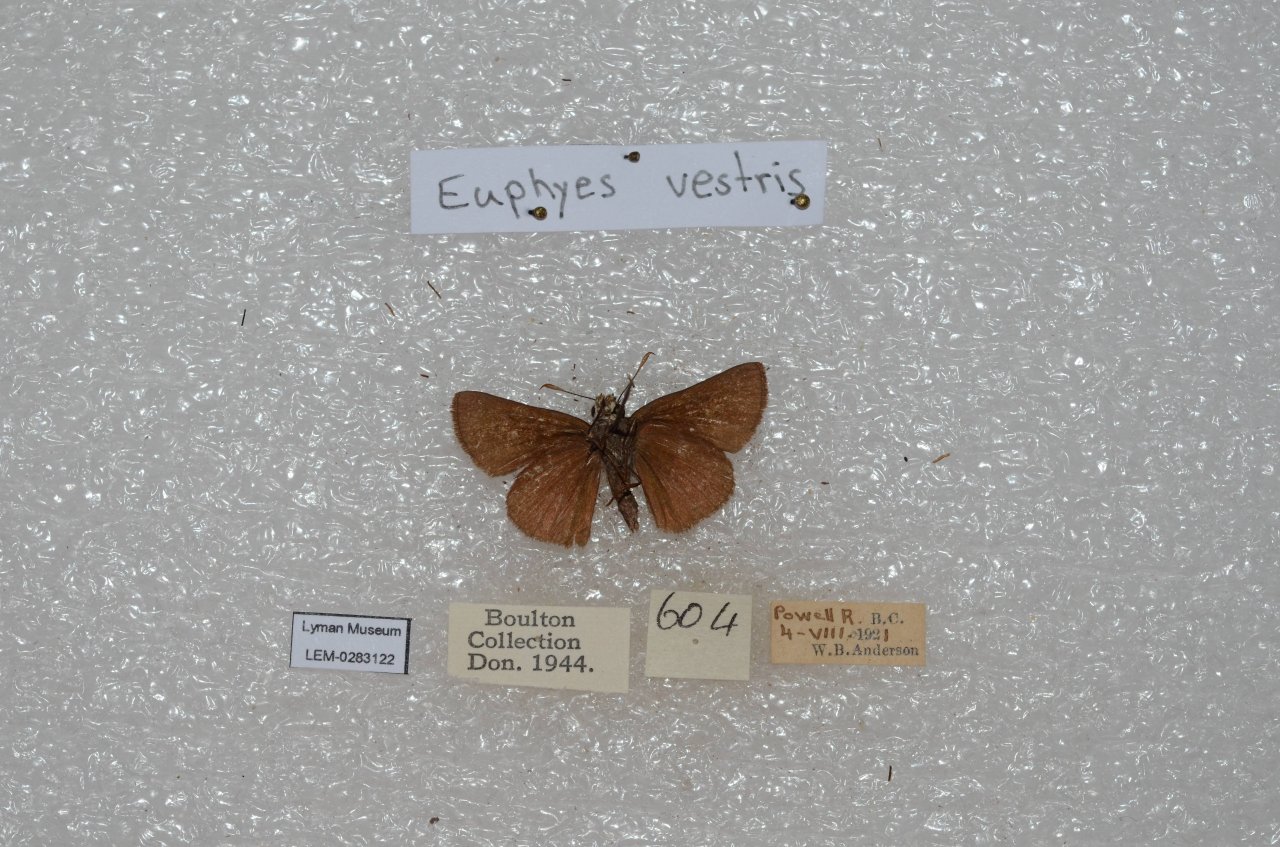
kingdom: Animalia
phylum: Arthropoda
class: Insecta
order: Lepidoptera
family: Hesperiidae
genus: Euphyes
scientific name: Euphyes vestris
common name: Dun Skipper
